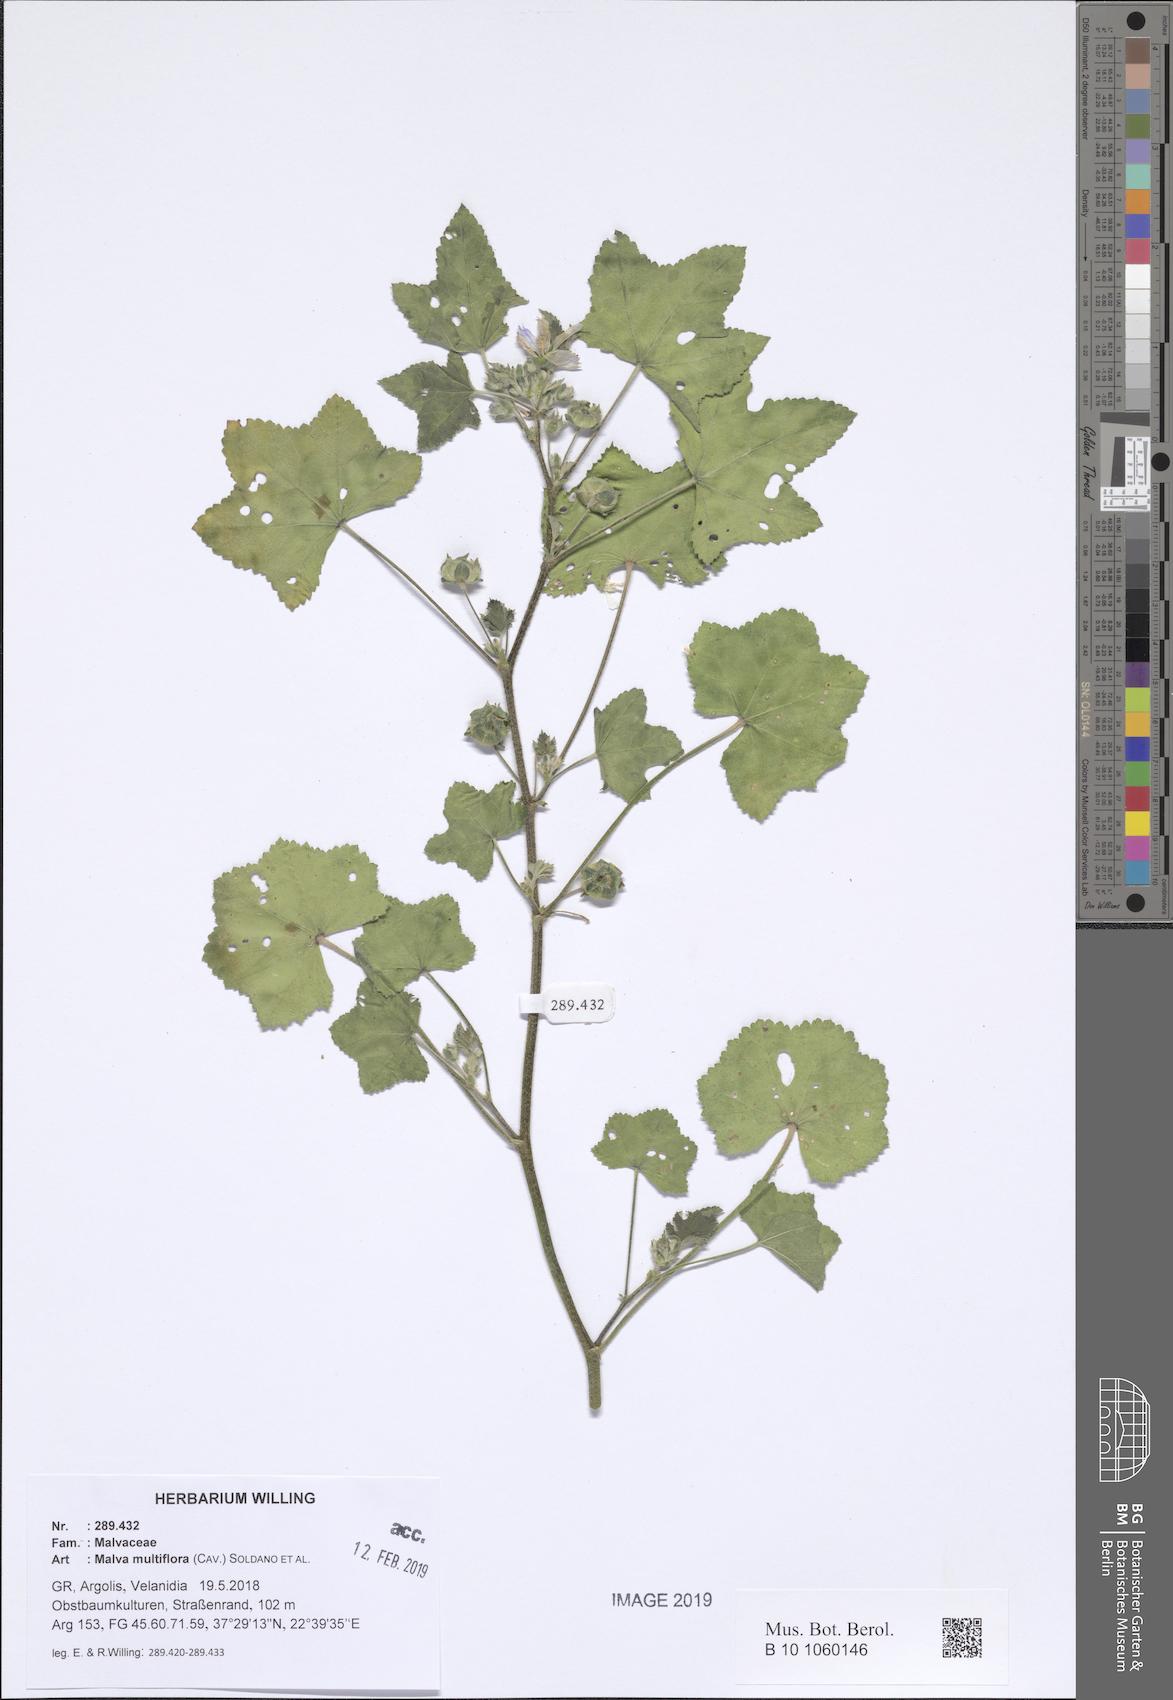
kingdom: Plantae
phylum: Tracheophyta
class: Magnoliopsida
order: Malvales
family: Malvaceae
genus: Malva
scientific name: Malva multiflora
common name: Cheeseweed
